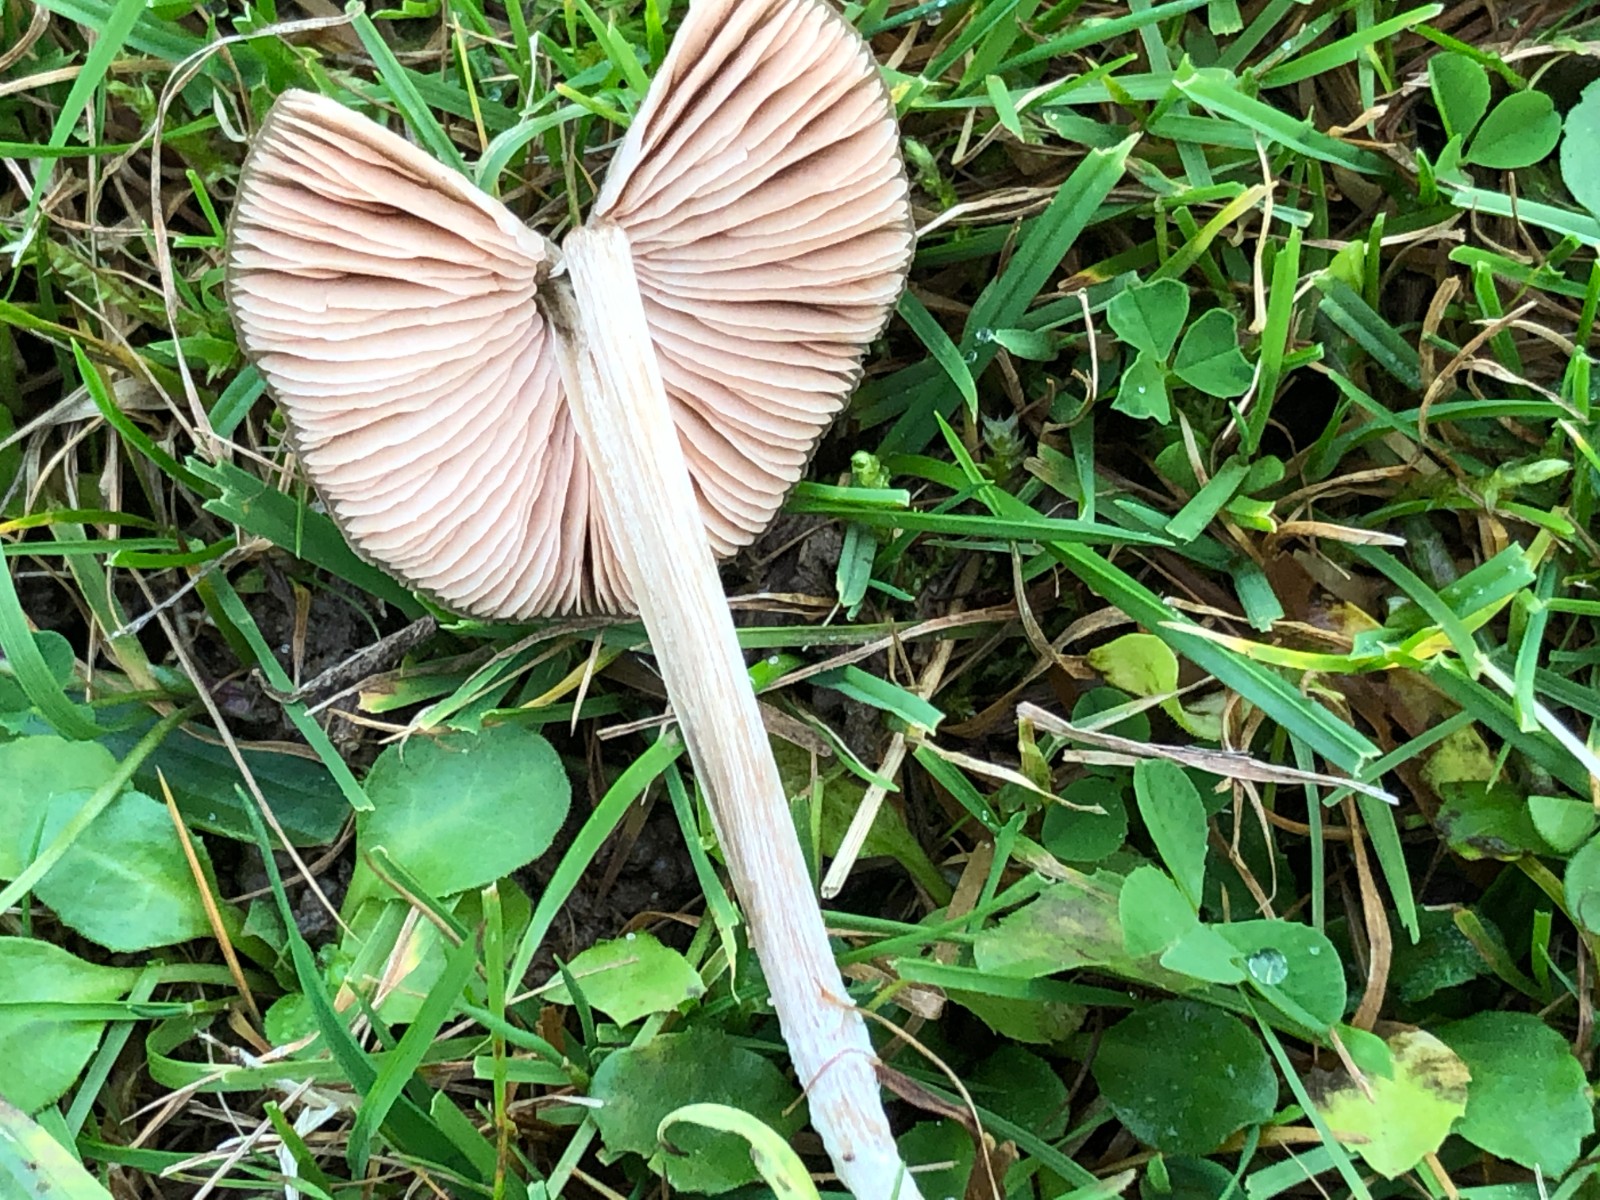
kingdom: Fungi
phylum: Basidiomycota
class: Agaricomycetes
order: Agaricales
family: Entolomataceae
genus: Entoloma
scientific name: Entoloma
